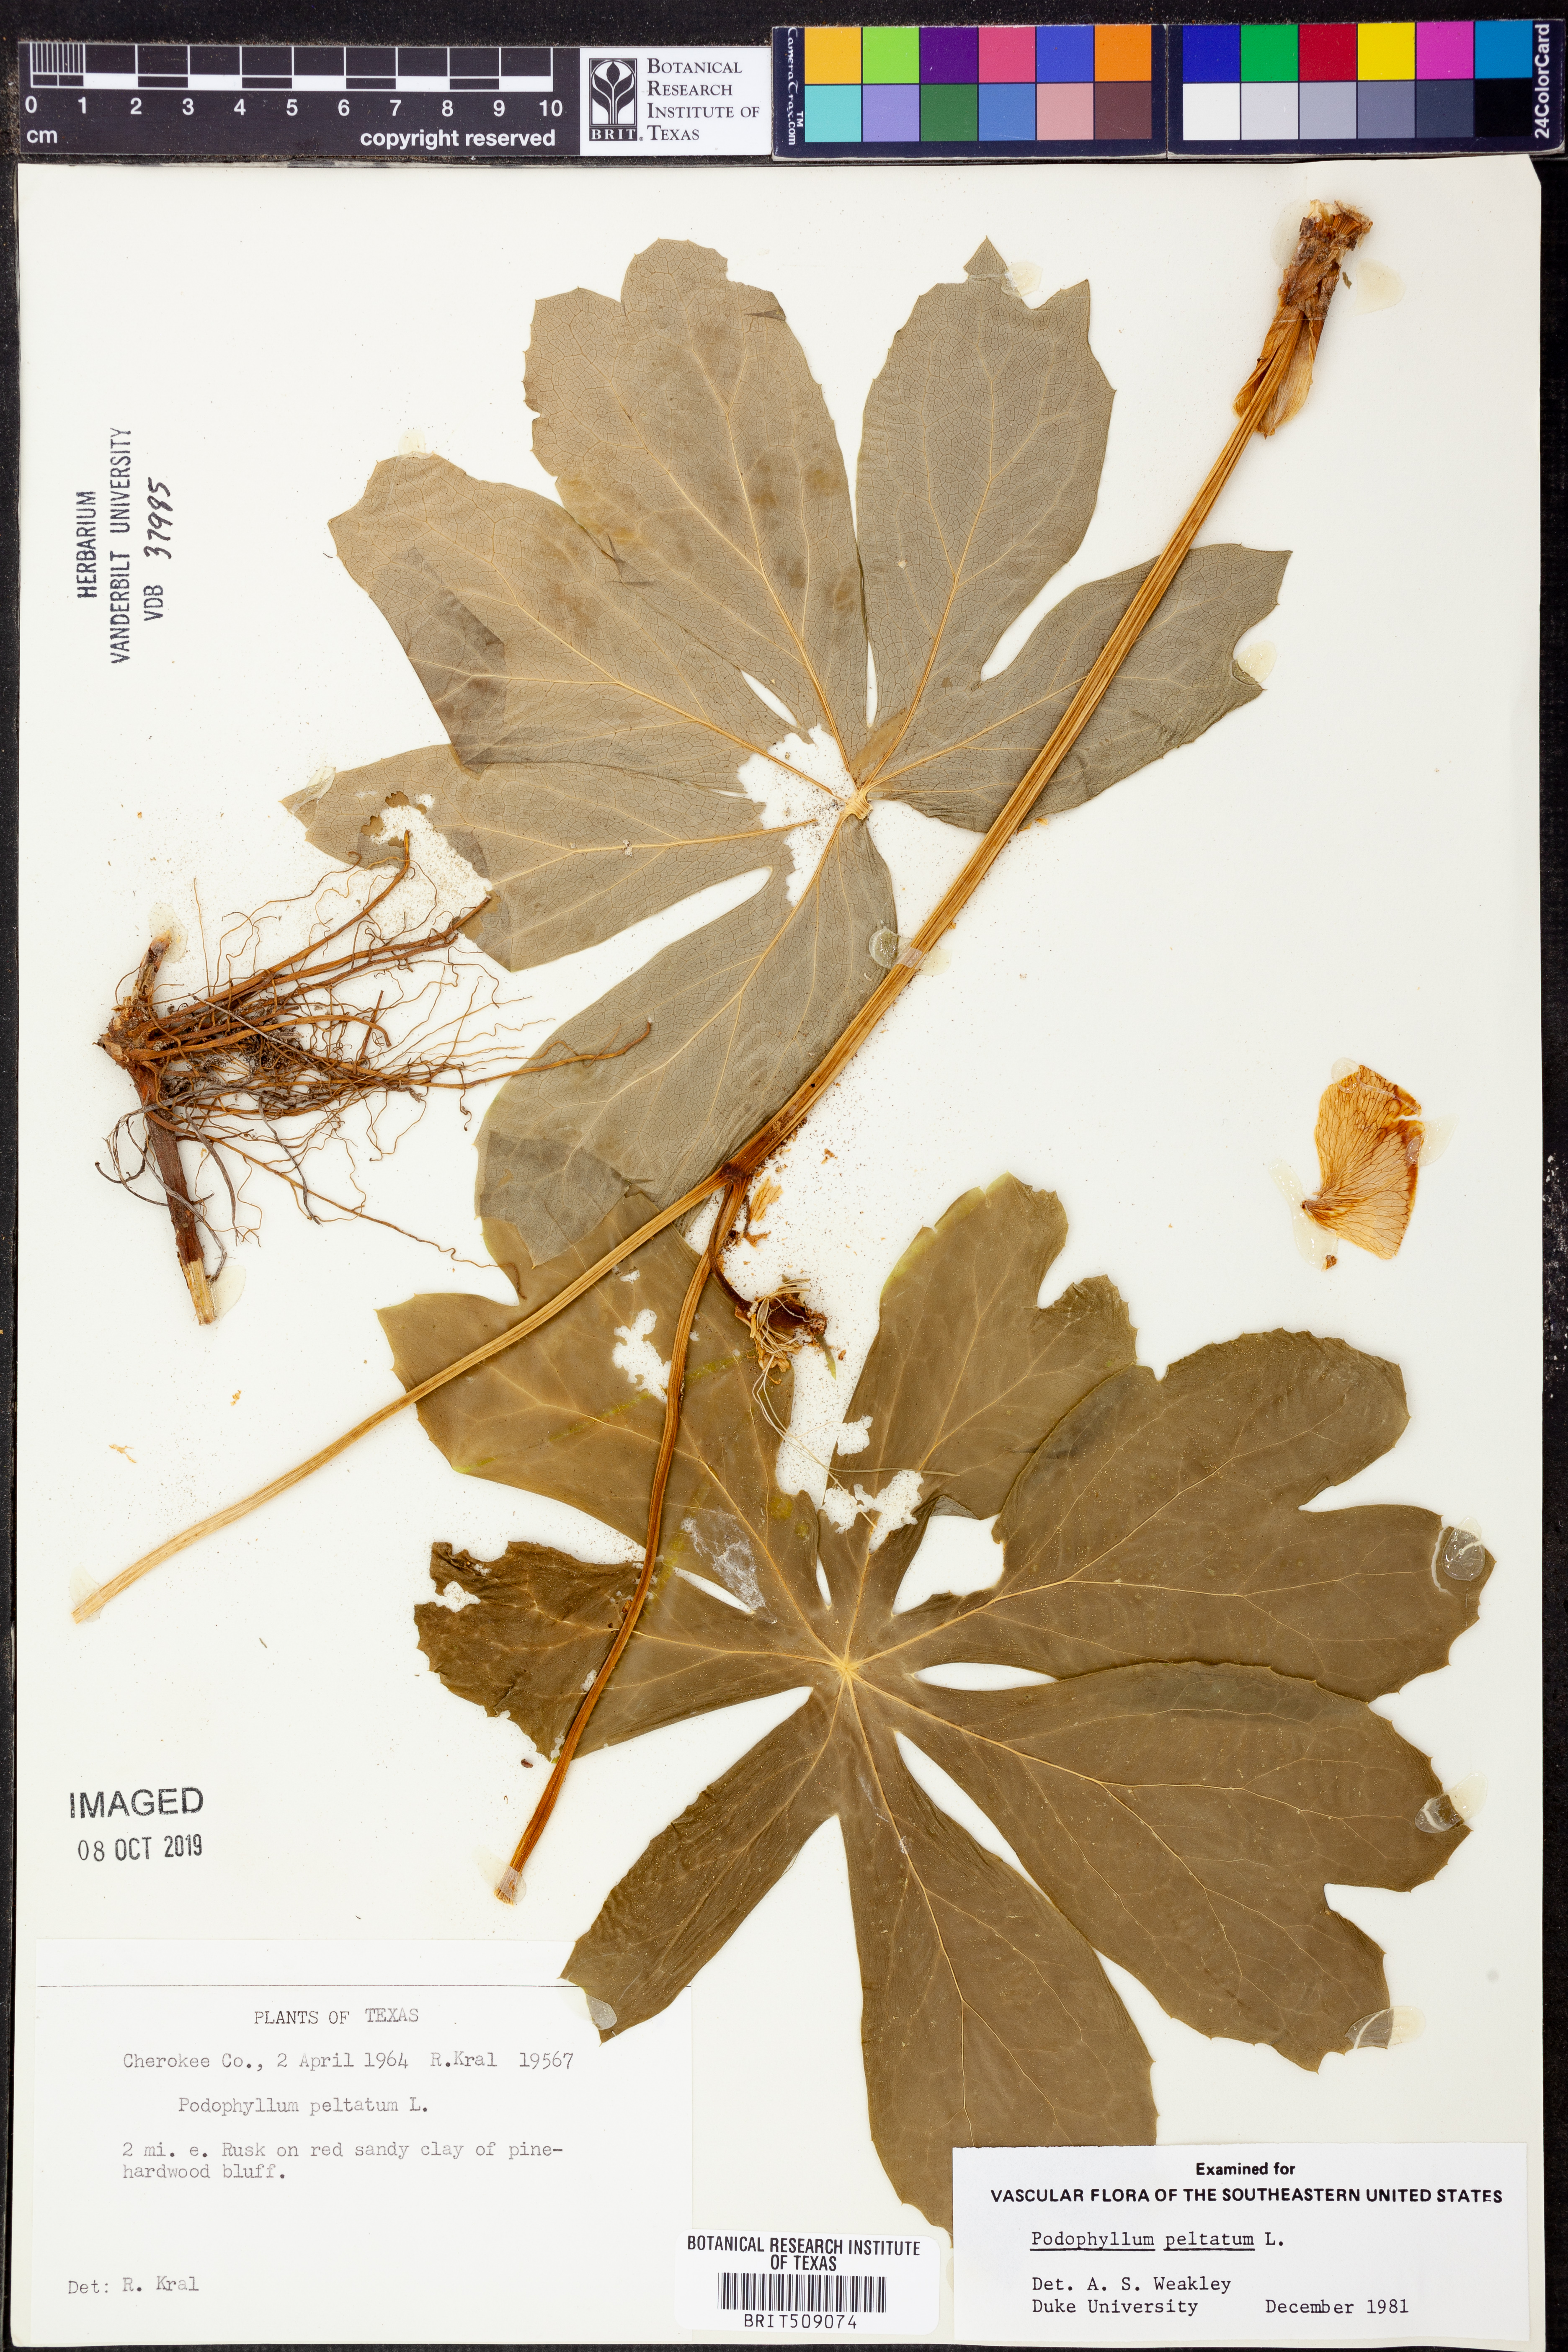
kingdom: Plantae
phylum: Tracheophyta
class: Magnoliopsida
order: Ranunculales
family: Berberidaceae
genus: Podophyllum
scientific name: Podophyllum peltatum
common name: Wild mandrake
